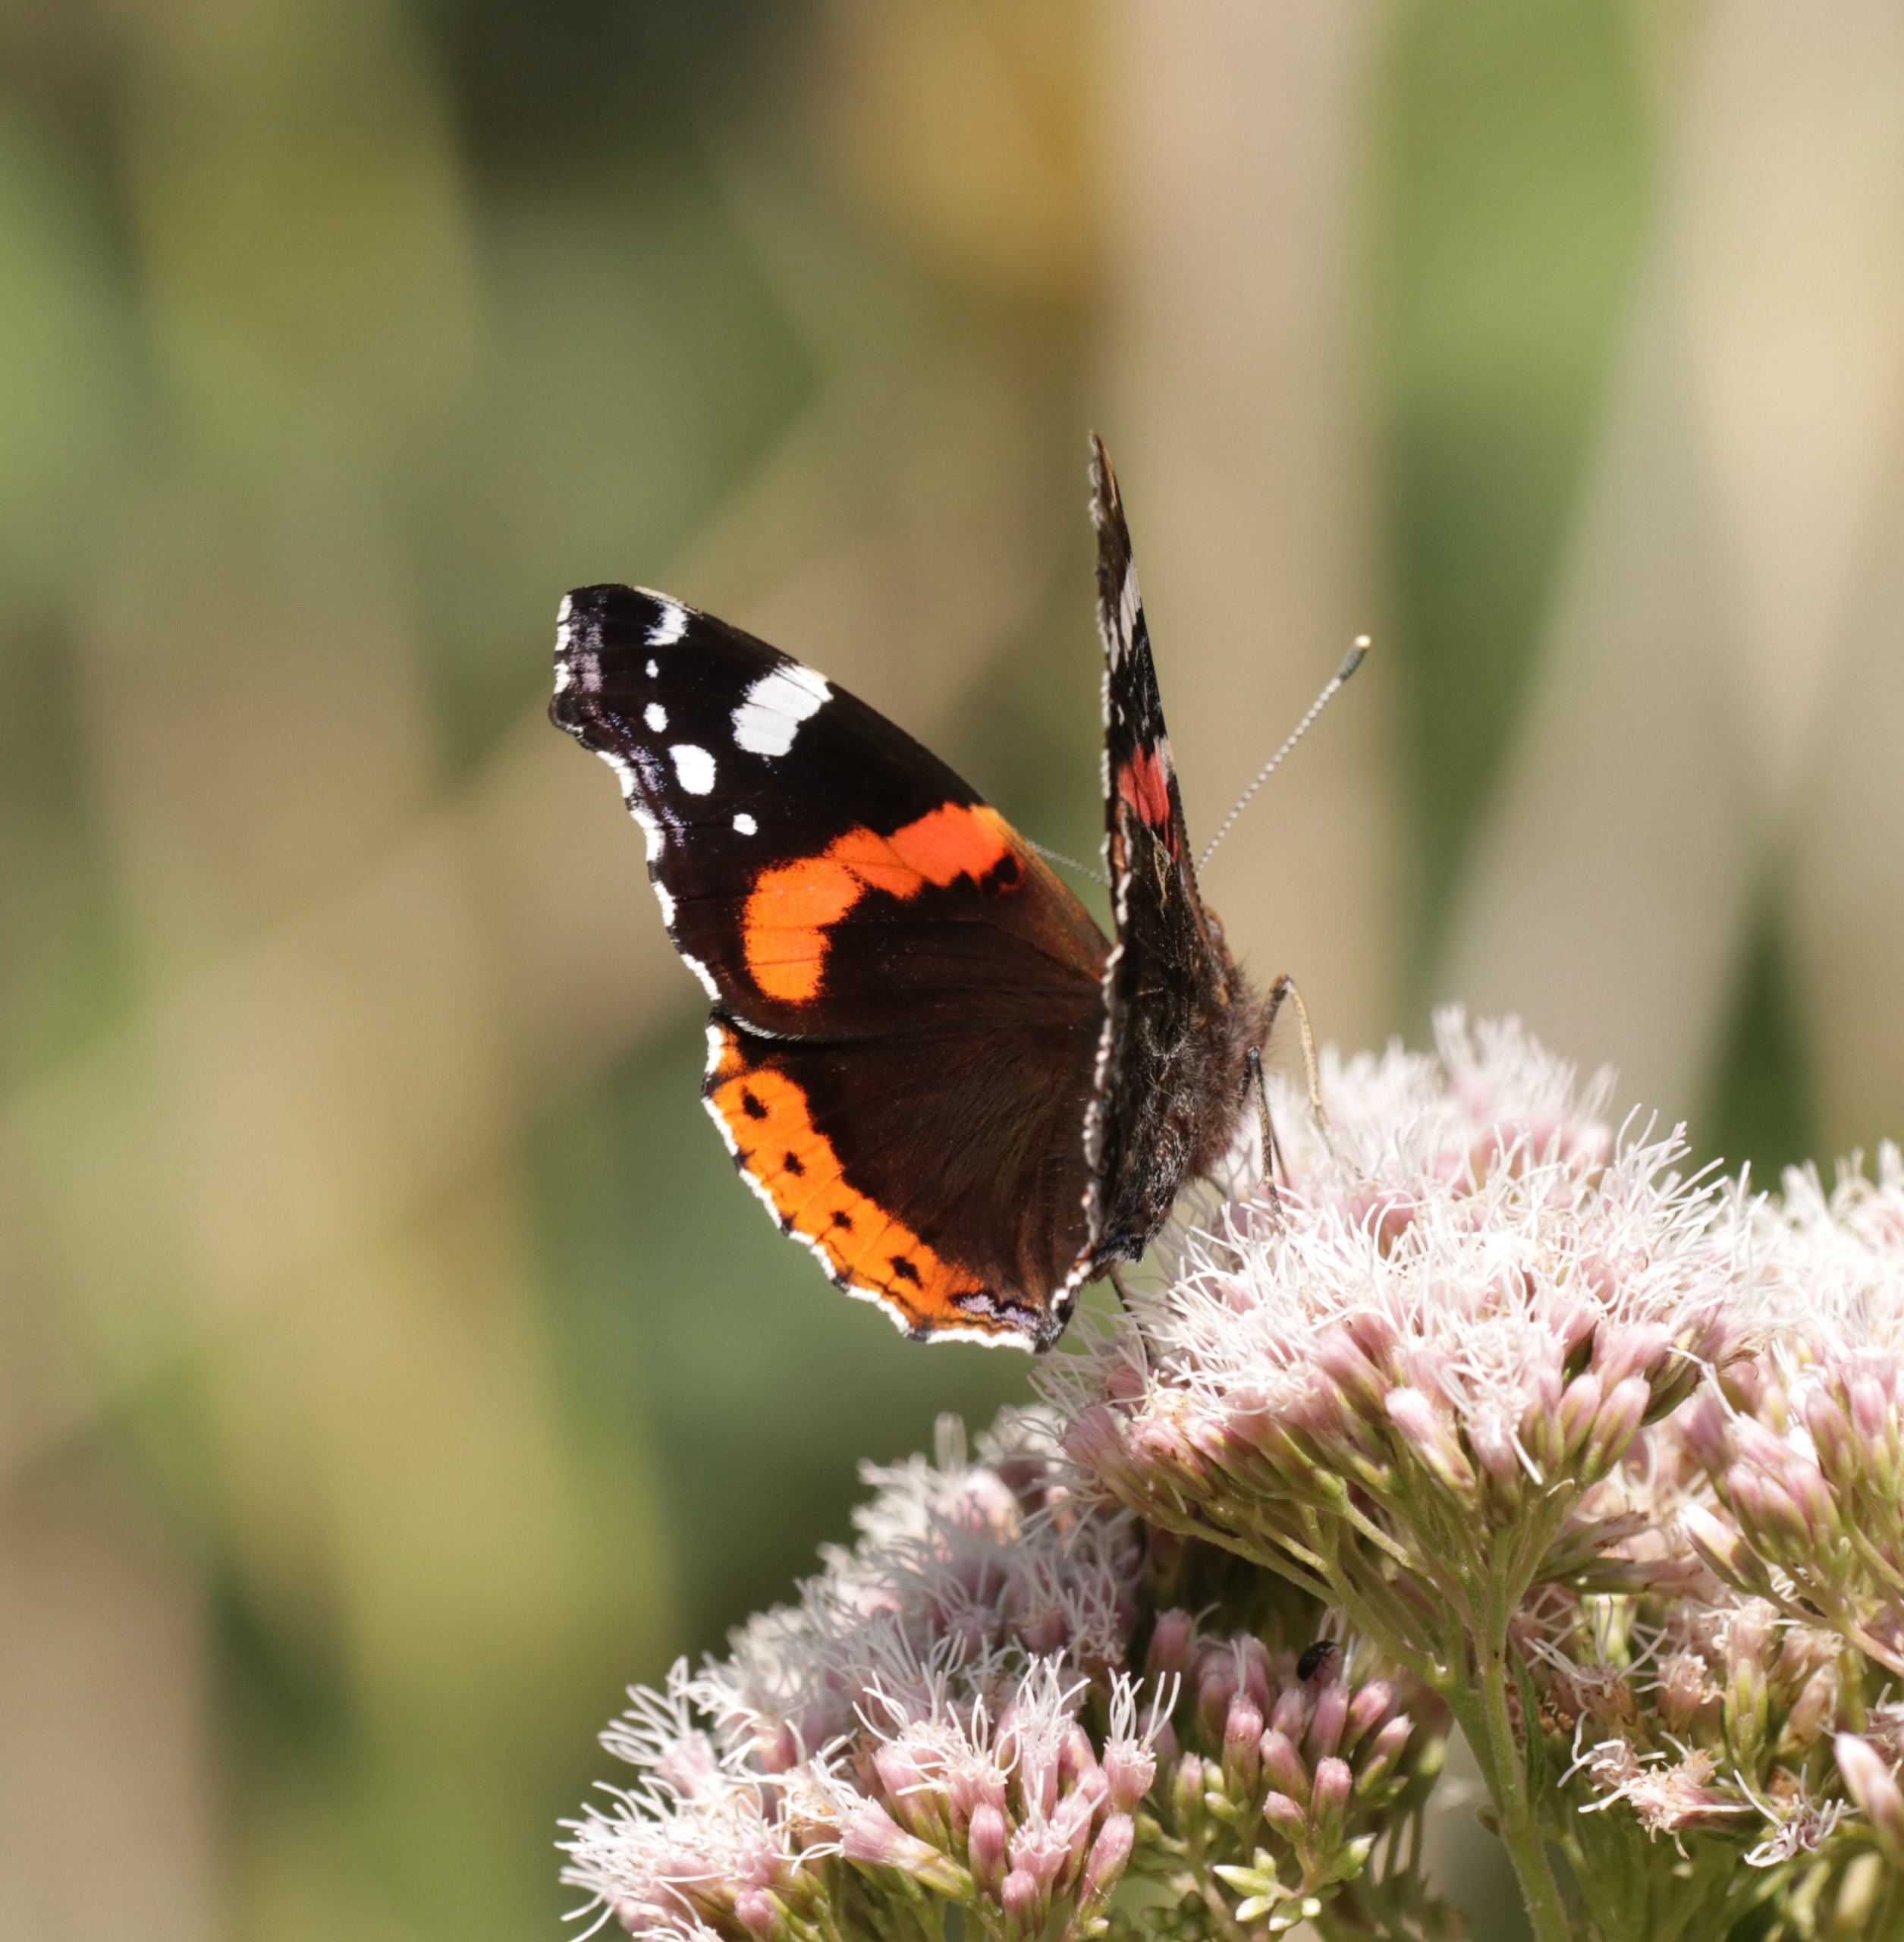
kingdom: Animalia
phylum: Arthropoda
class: Insecta
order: Lepidoptera
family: Nymphalidae
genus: Vanessa
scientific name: Vanessa atalanta
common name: Admiral
